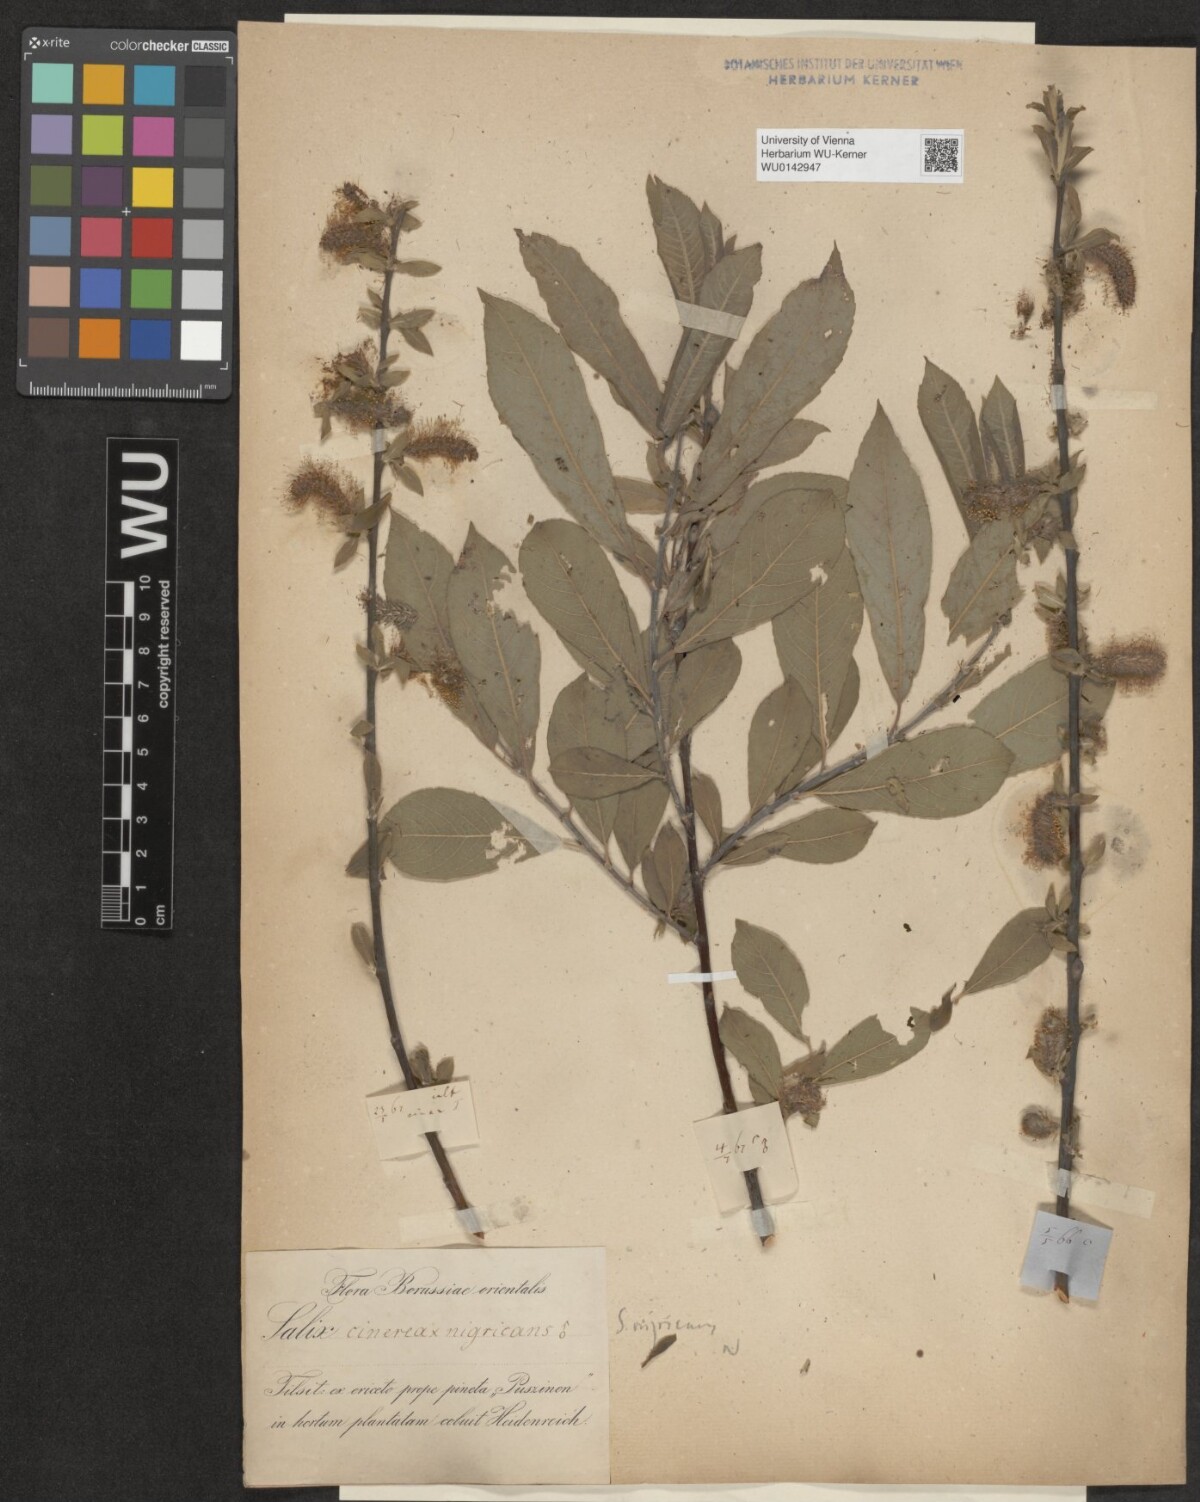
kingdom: Plantae
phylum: Tracheophyta
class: Magnoliopsida
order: Malpighiales
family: Salicaceae
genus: Salix
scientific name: Salix myrsinifolia
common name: Dark-leaved willow
